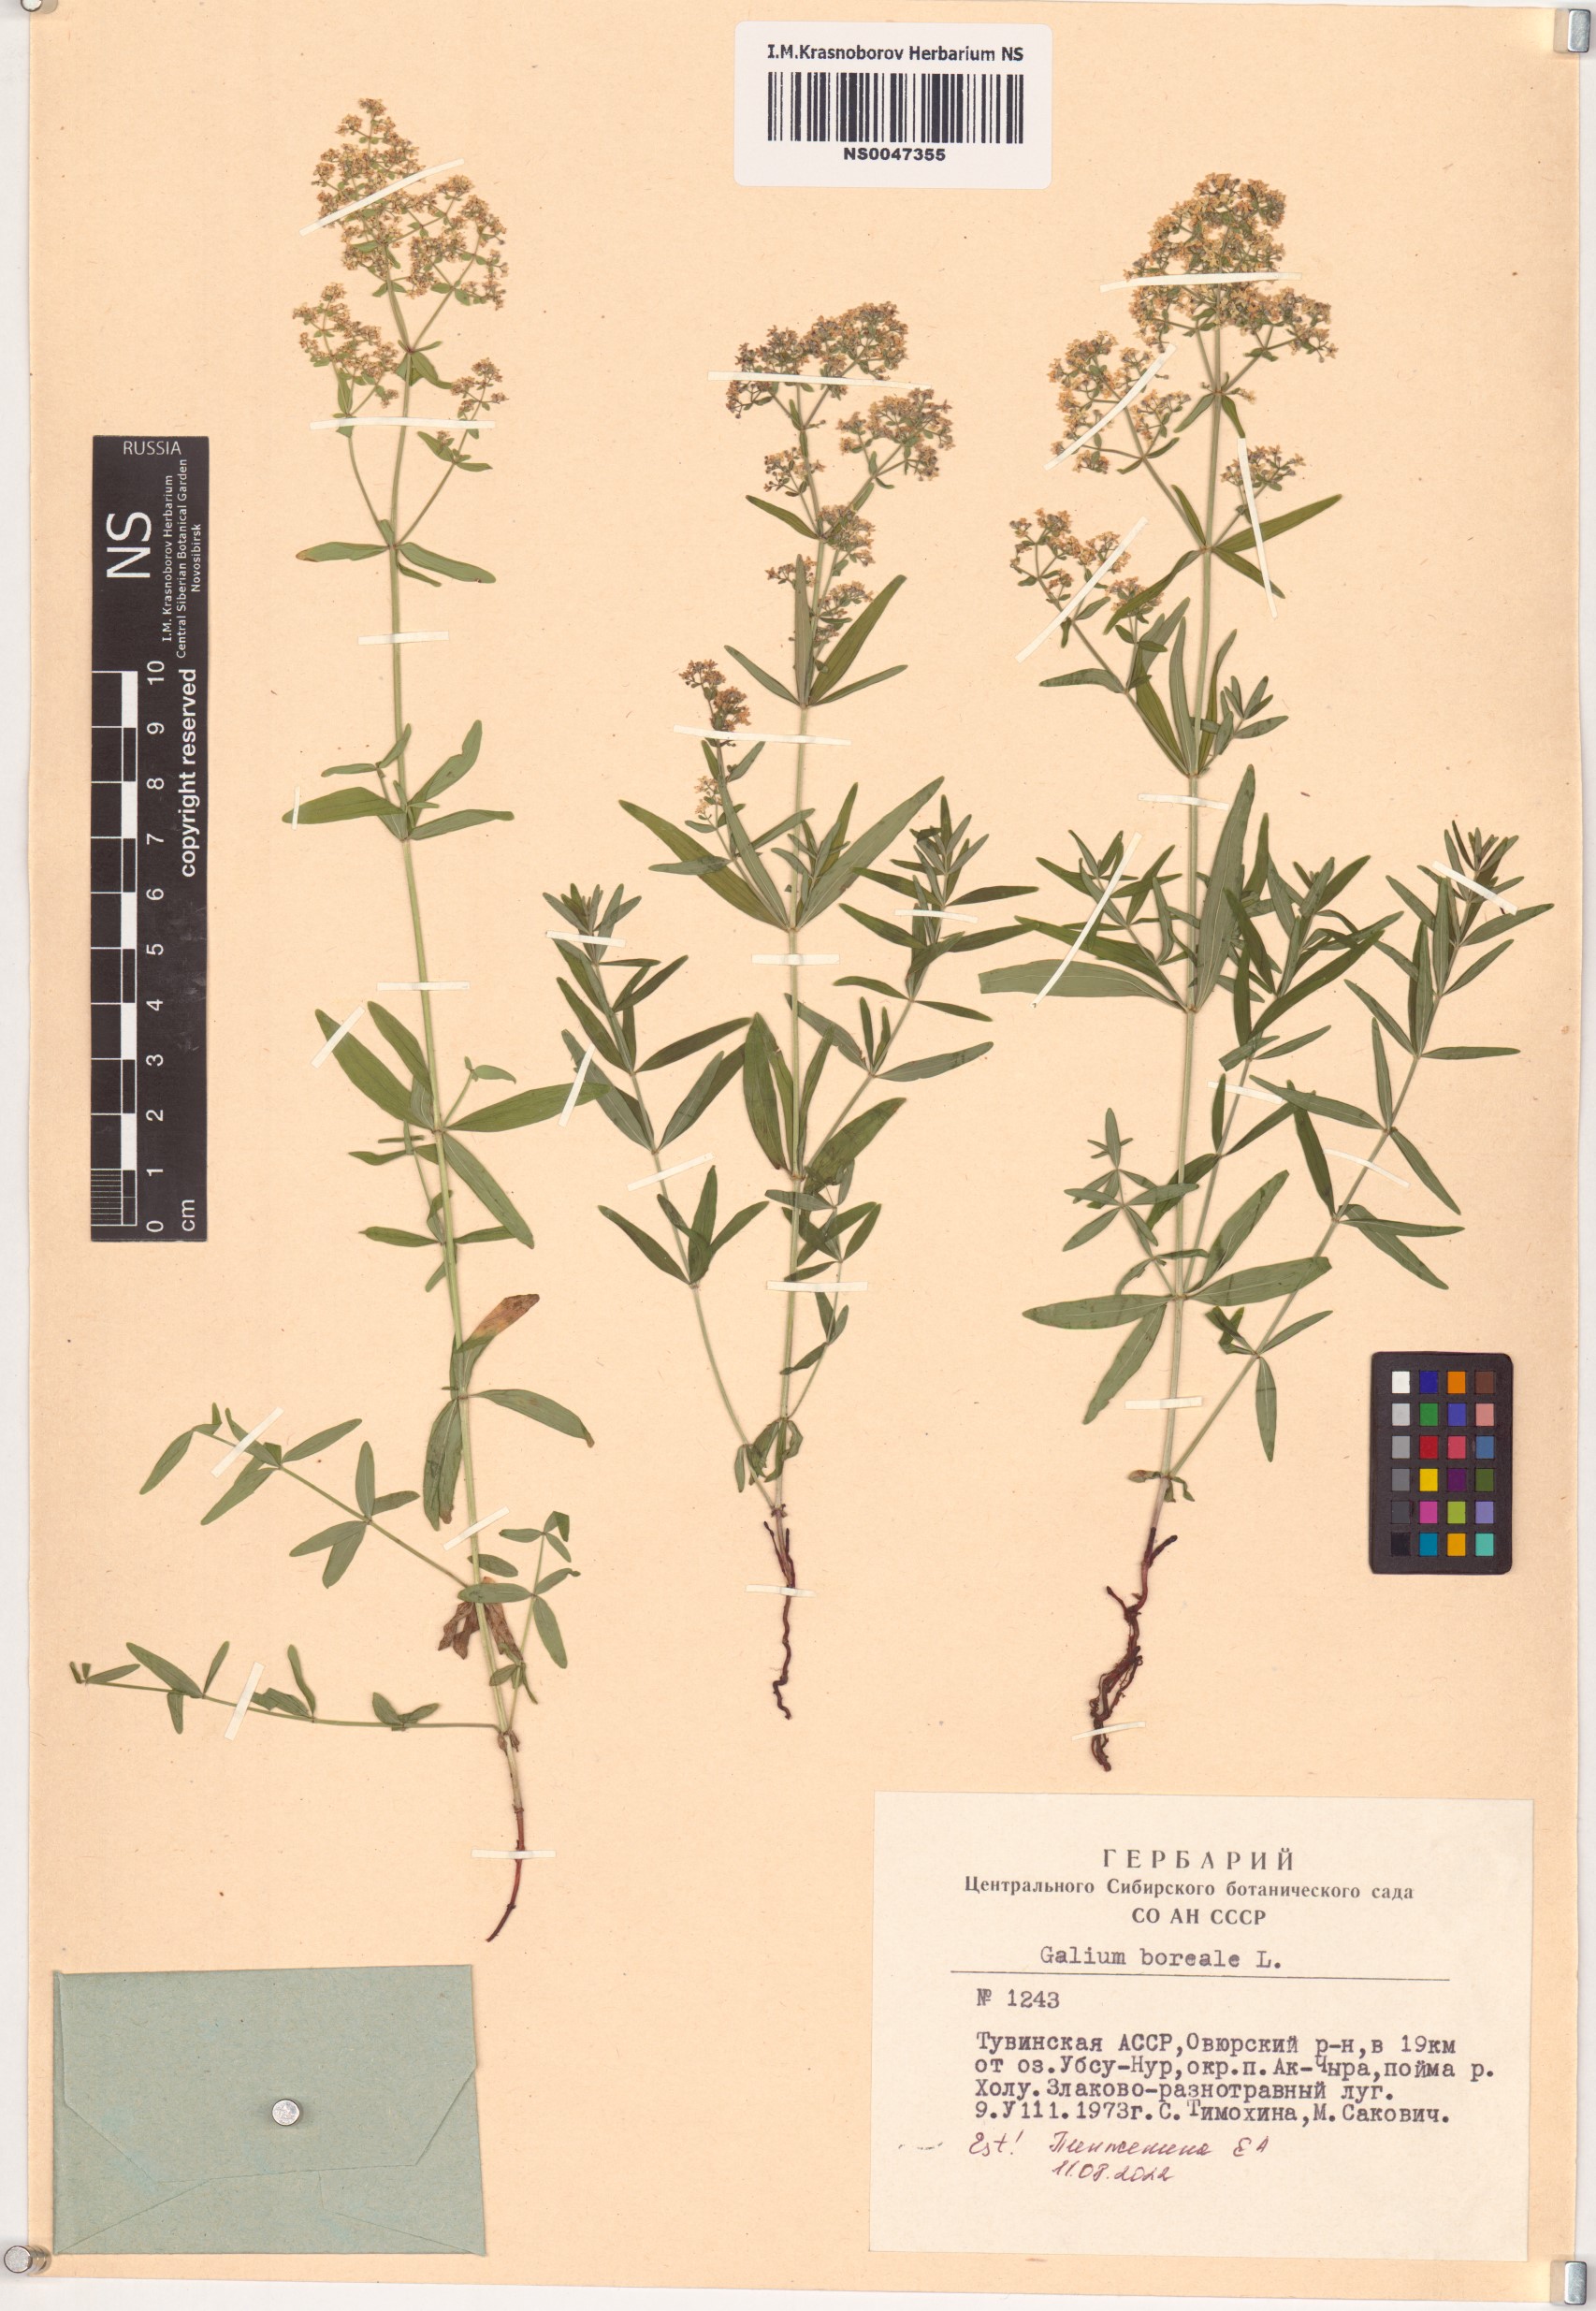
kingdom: Plantae
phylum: Tracheophyta
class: Magnoliopsida
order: Gentianales
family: Rubiaceae
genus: Galium
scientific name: Galium boreale
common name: Northern bedstraw
